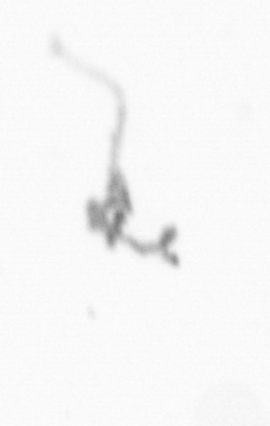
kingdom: Chromista
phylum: Ochrophyta
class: Bacillariophyceae
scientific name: Bacillariophyceae
